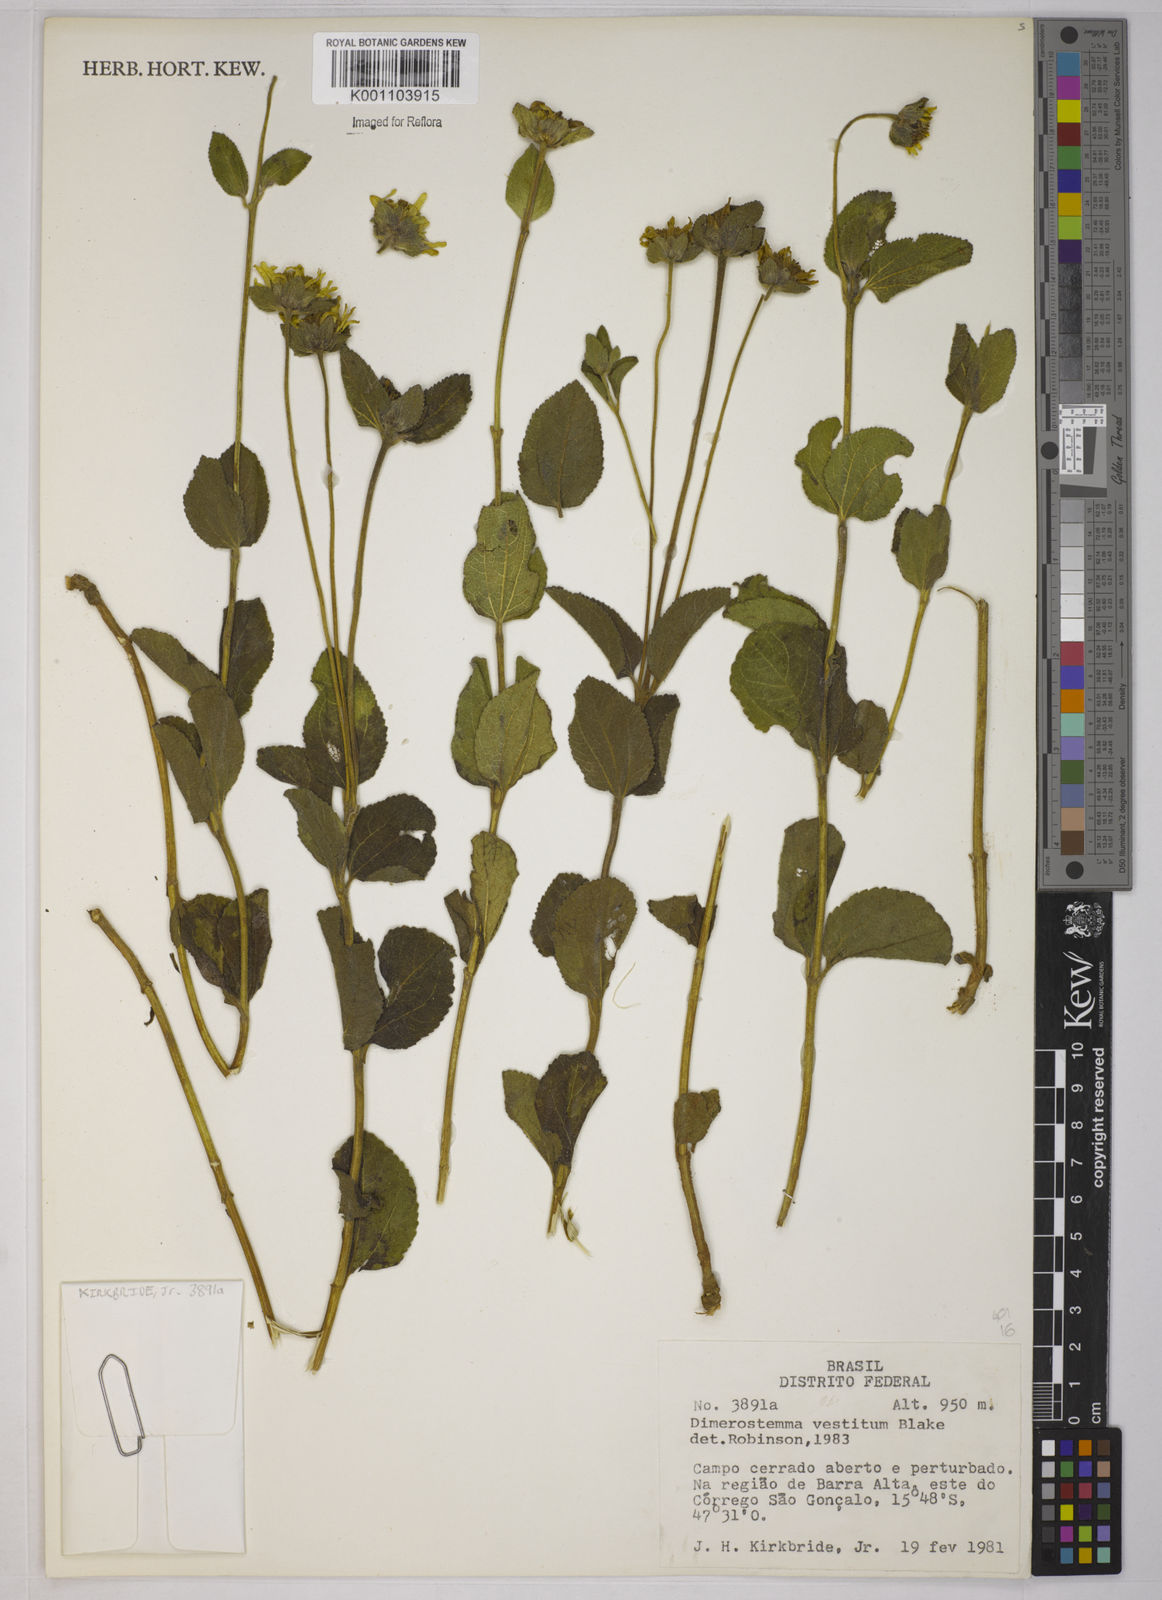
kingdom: Plantae
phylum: Tracheophyta
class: Magnoliopsida
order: Asterales
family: Asteraceae
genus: Dimerostemma
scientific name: Dimerostemma vestitum
